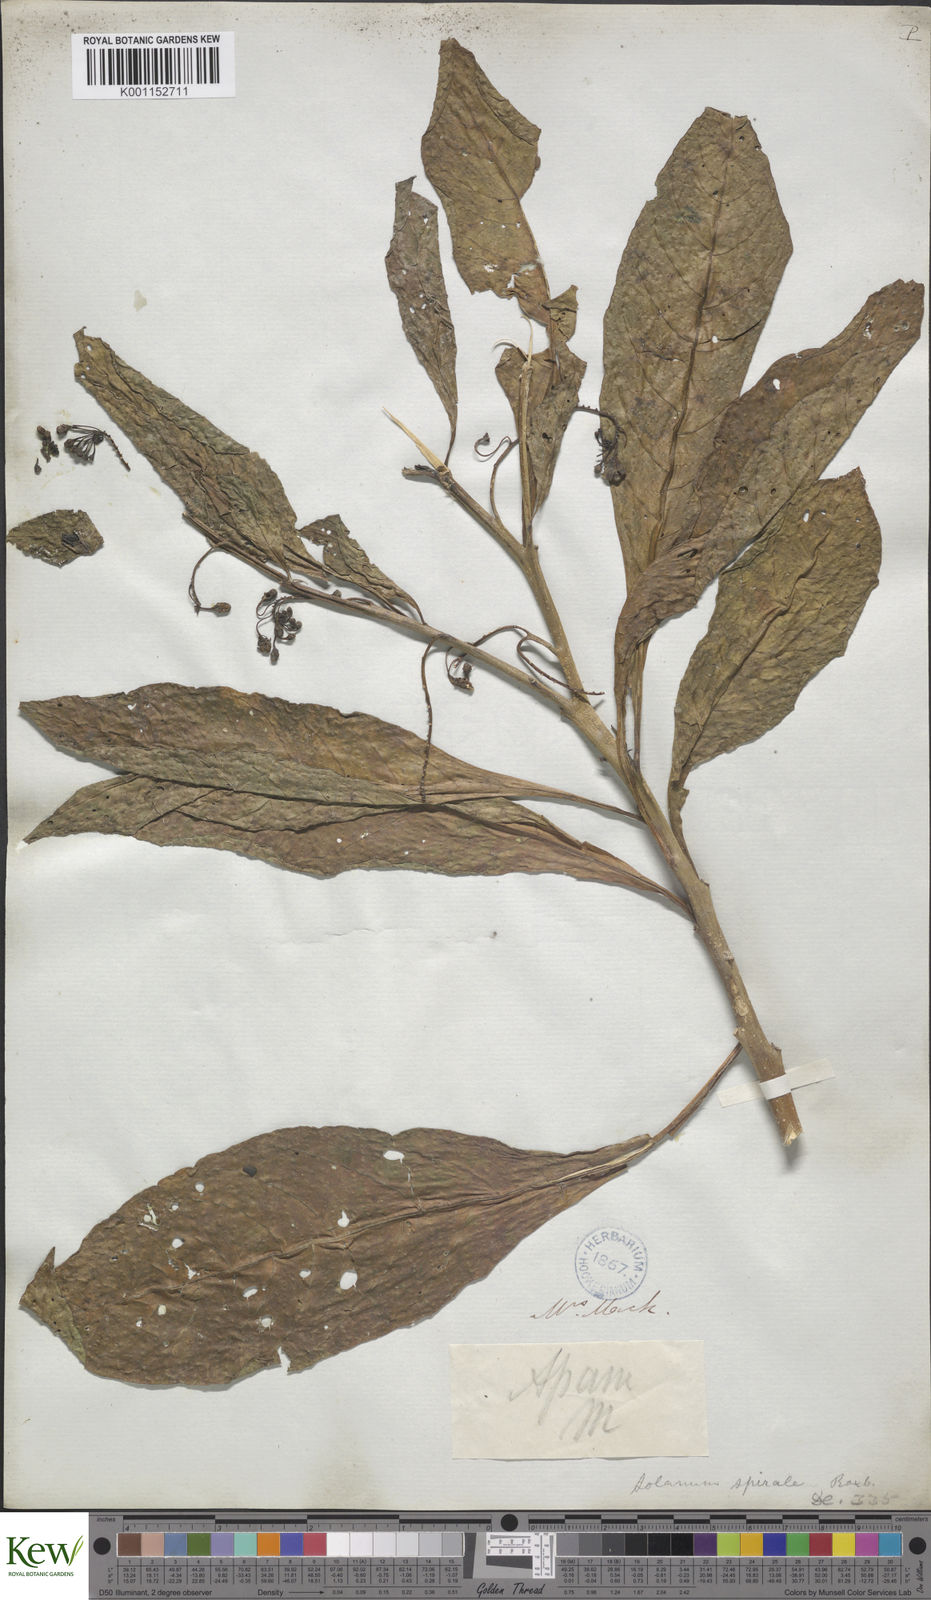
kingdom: Plantae
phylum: Tracheophyta
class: Magnoliopsida
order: Solanales
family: Solanaceae
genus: Solanum
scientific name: Solanum spirale
